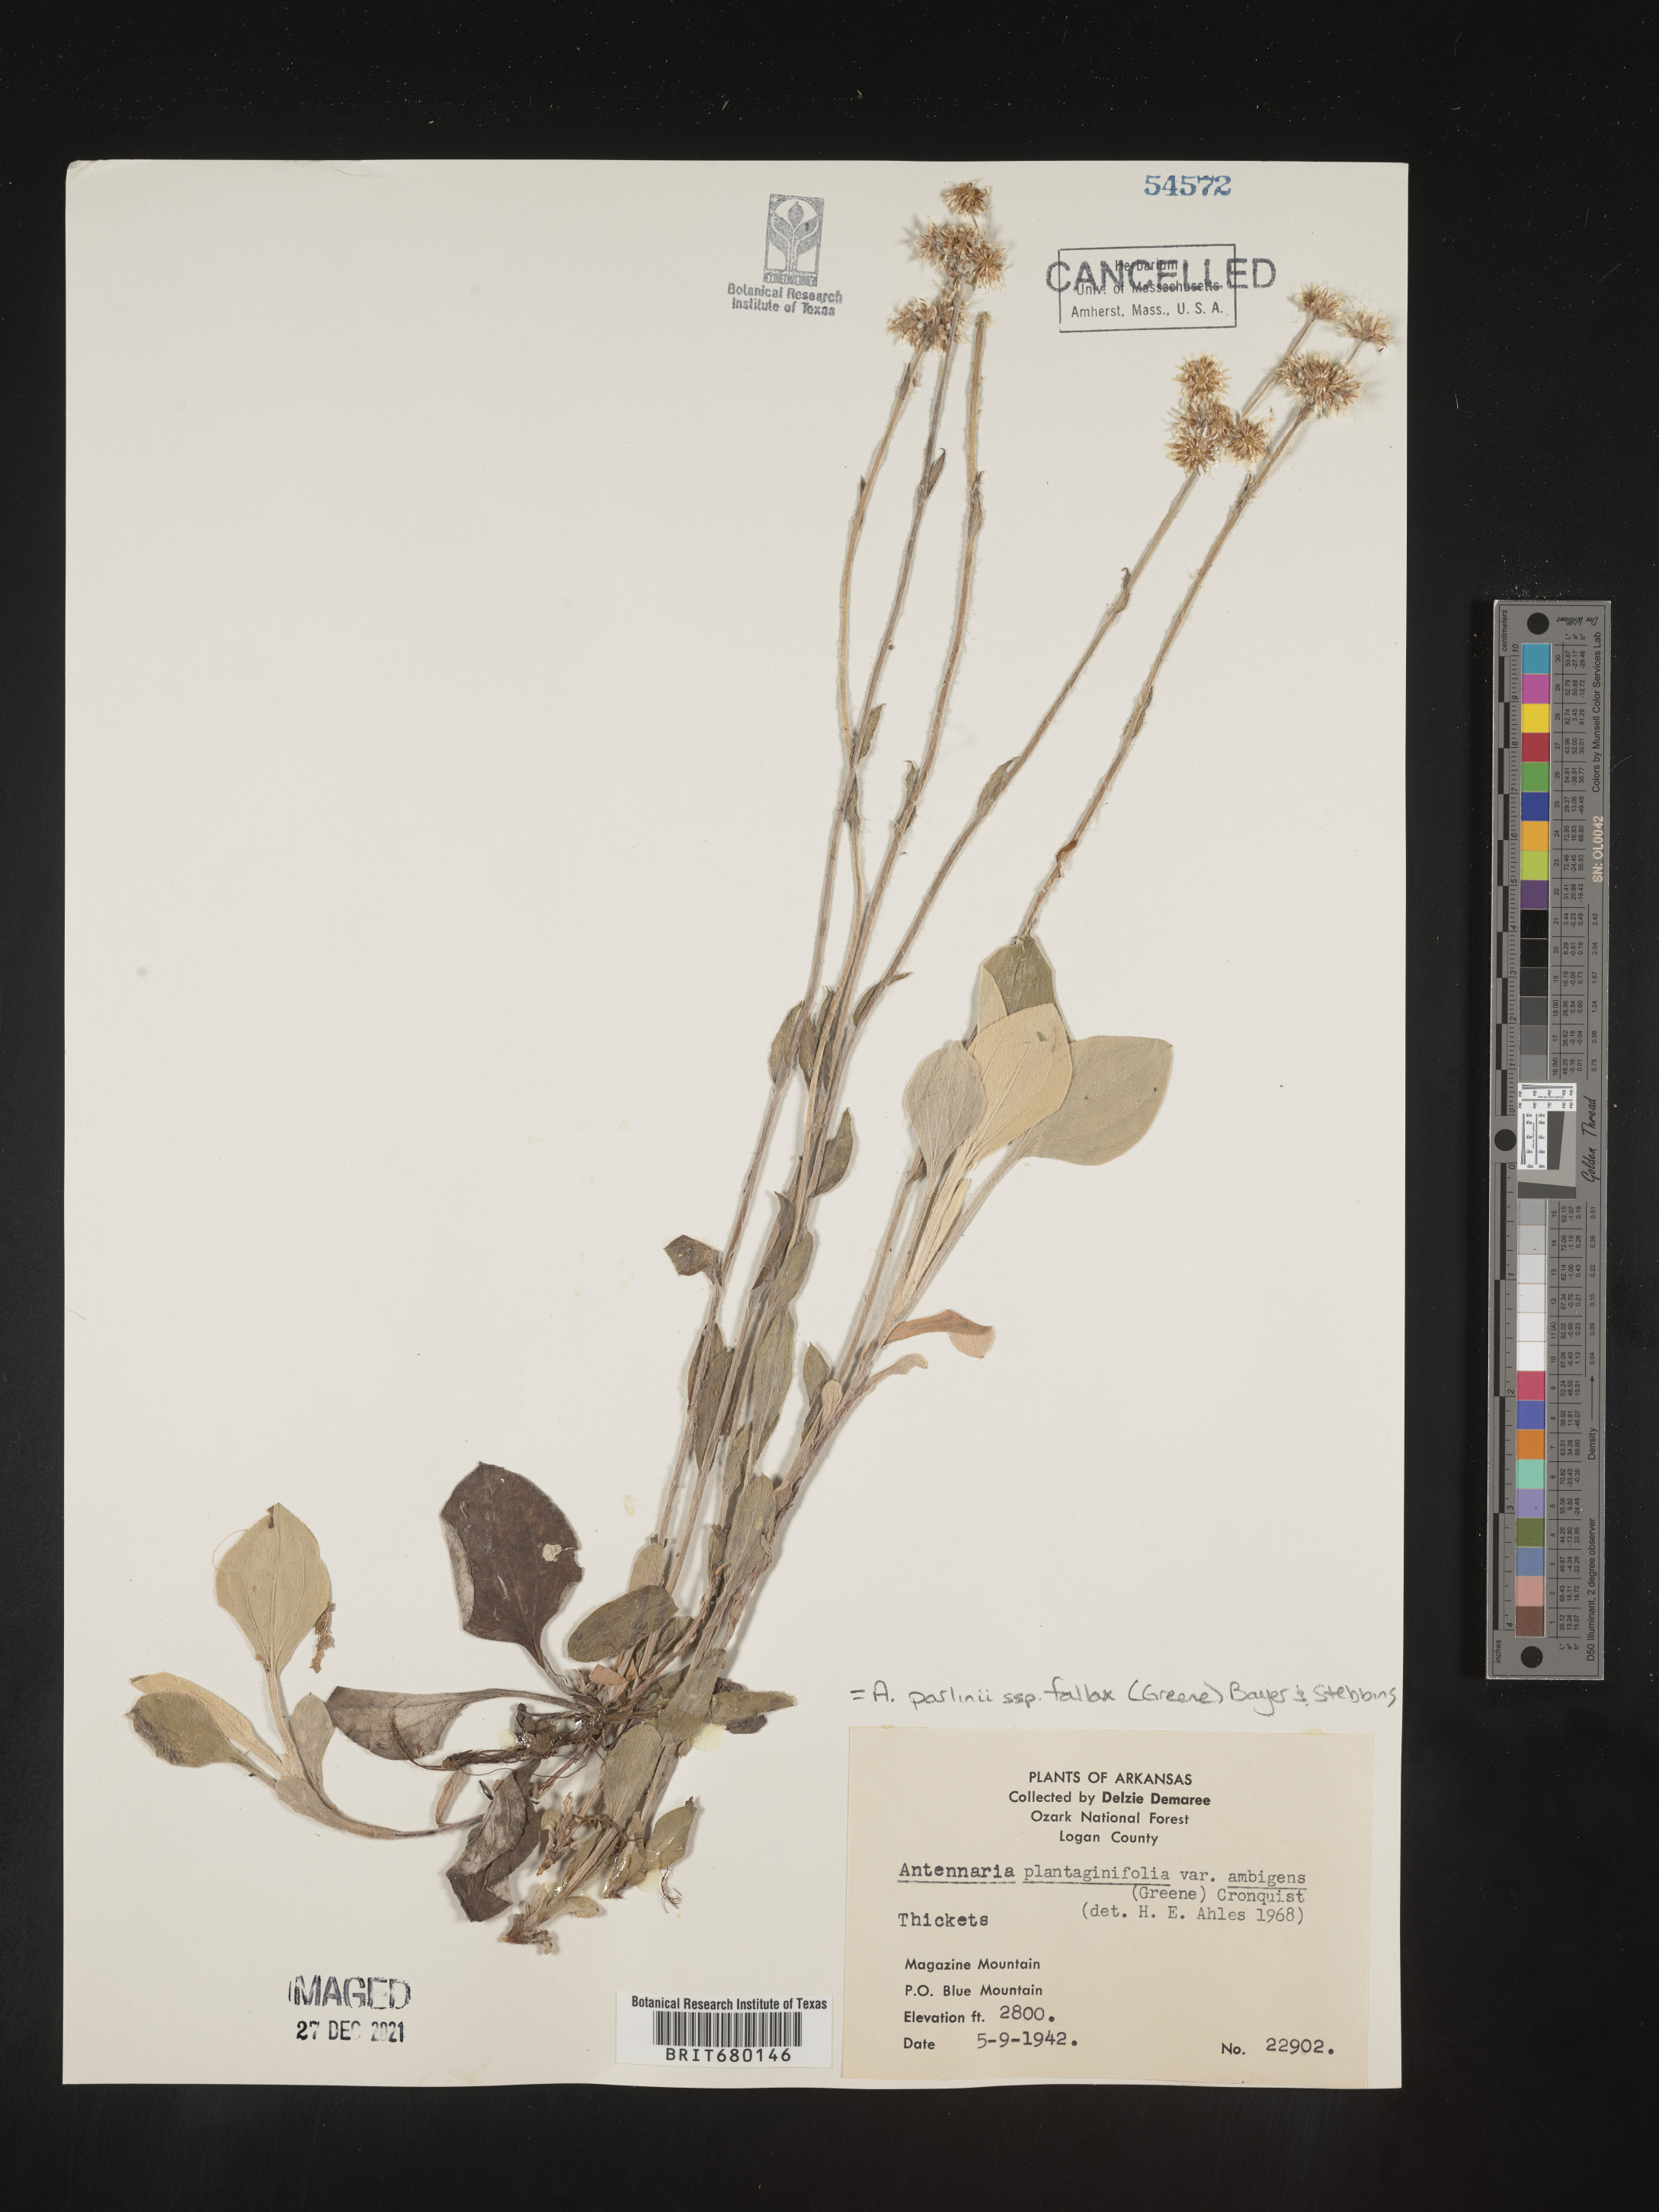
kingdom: Plantae
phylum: Tracheophyta
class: Magnoliopsida
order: Asterales
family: Asteraceae
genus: Antennaria
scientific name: Antennaria plantaginifolia
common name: Plantain-leaved pussytoes
